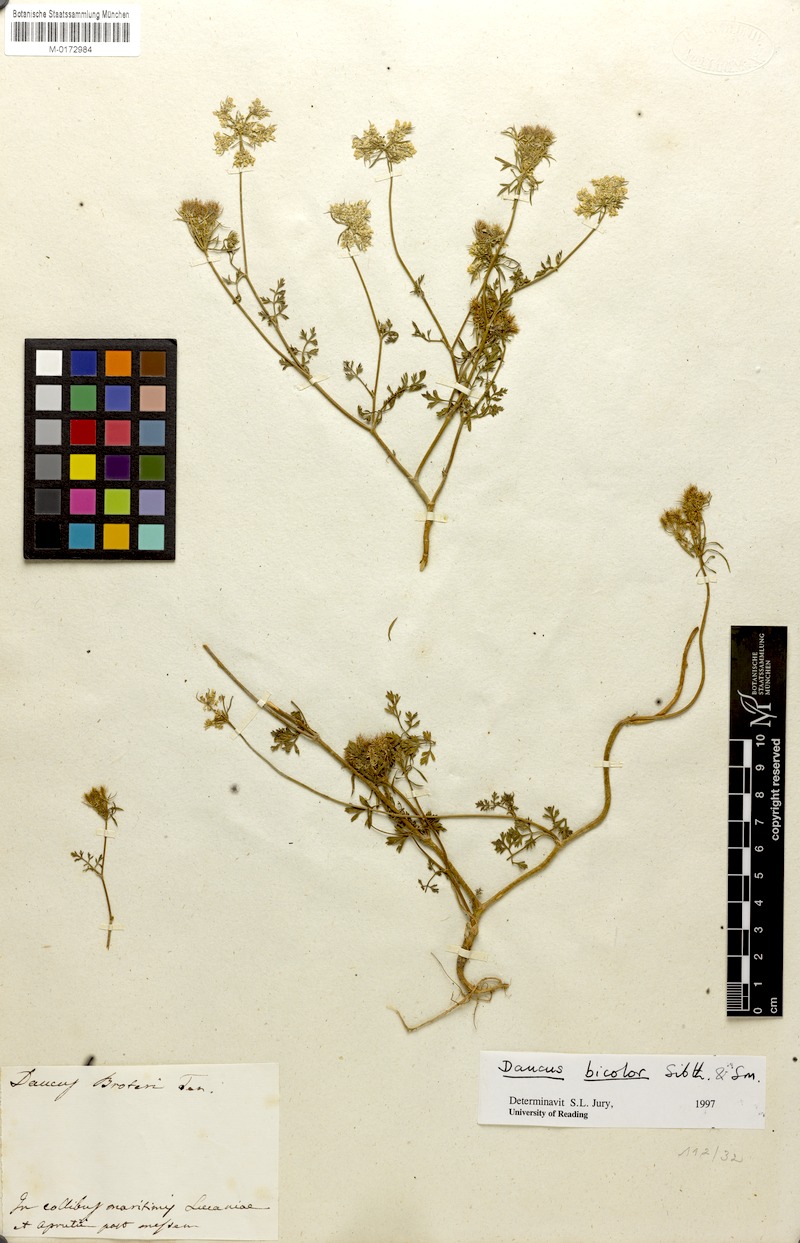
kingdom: Plantae
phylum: Tracheophyta
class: Magnoliopsida
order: Apiales
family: Apiaceae
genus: Daucus
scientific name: Daucus guttatus
